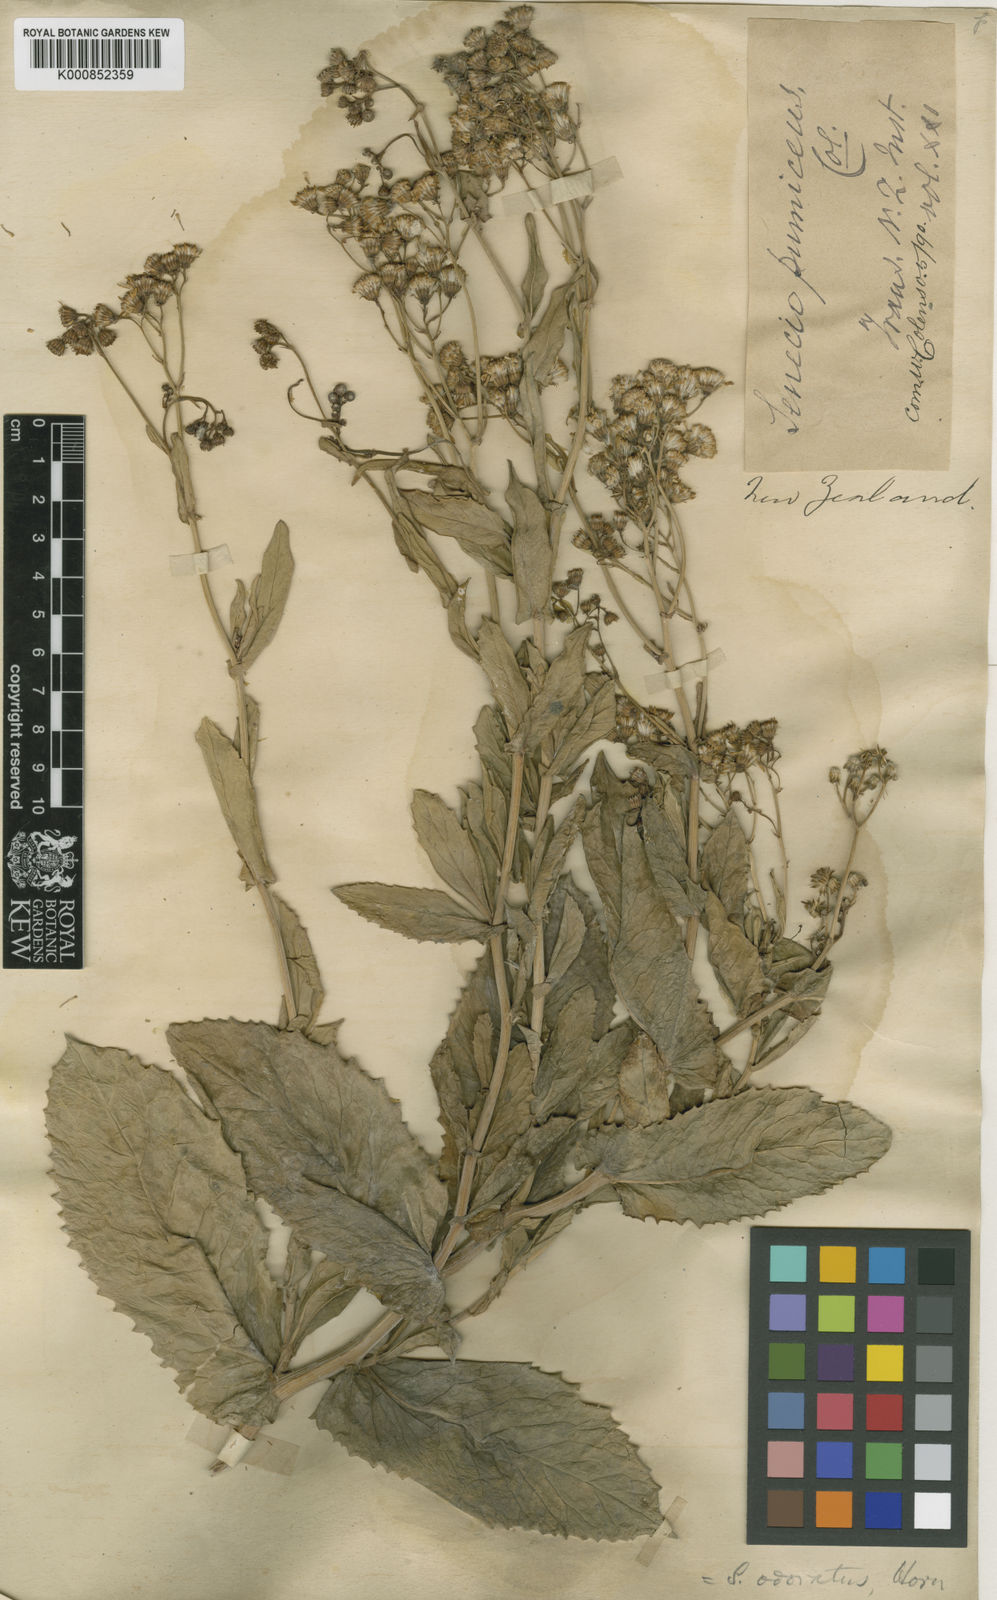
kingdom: Plantae
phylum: Tracheophyta
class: Magnoliopsida
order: Asterales
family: Asteraceae
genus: Senecio
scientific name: Senecio banksii
